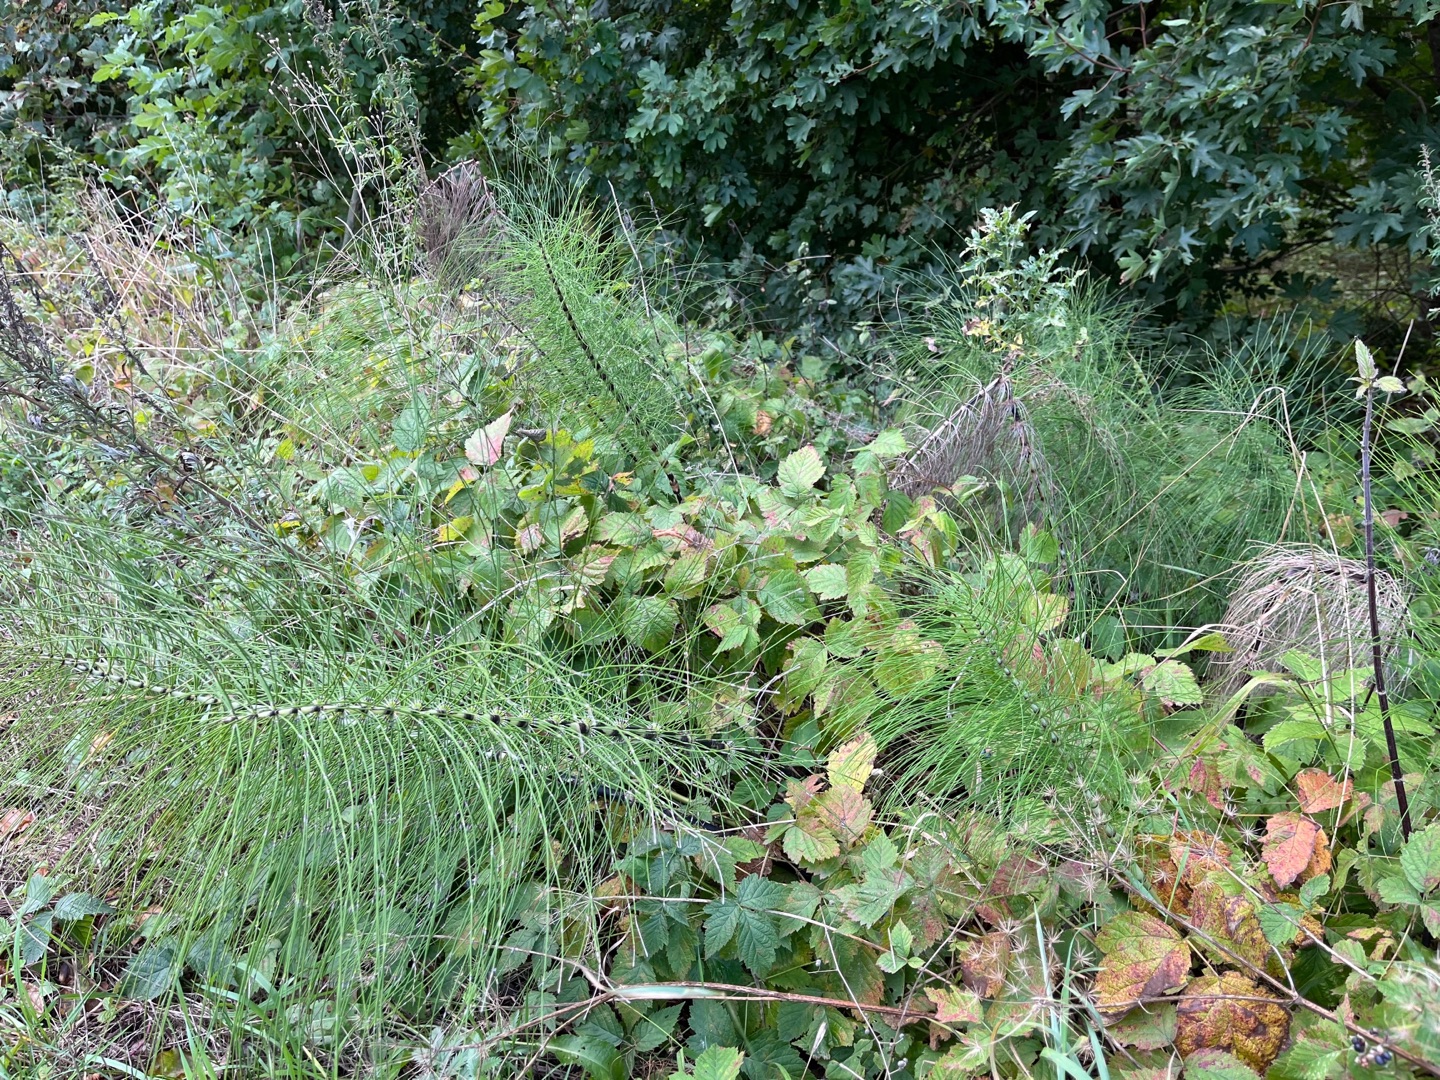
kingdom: Plantae
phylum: Tracheophyta
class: Polypodiopsida
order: Equisetales
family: Equisetaceae
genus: Equisetum
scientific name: Equisetum telmateia
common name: Elfenbens-padderok
